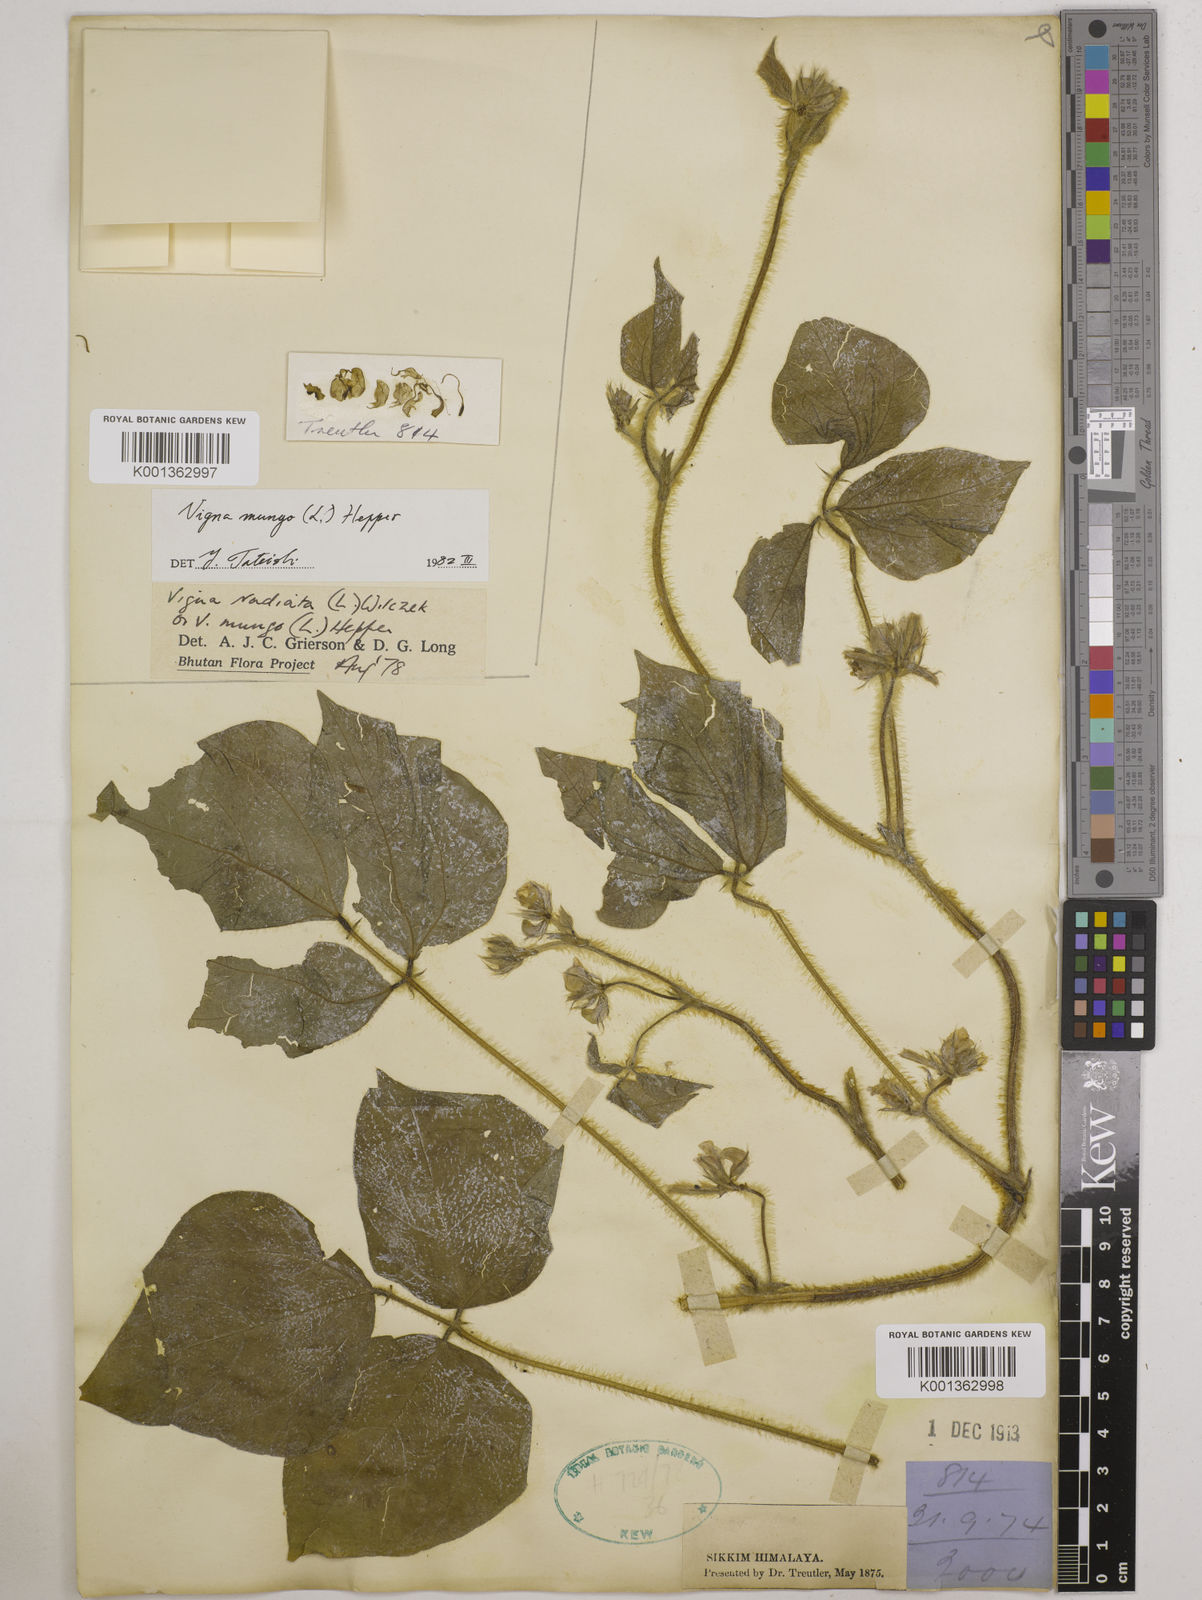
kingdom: Plantae
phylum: Tracheophyta
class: Magnoliopsida
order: Fabales
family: Fabaceae
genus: Vigna
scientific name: Vigna mungo
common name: Black gram
